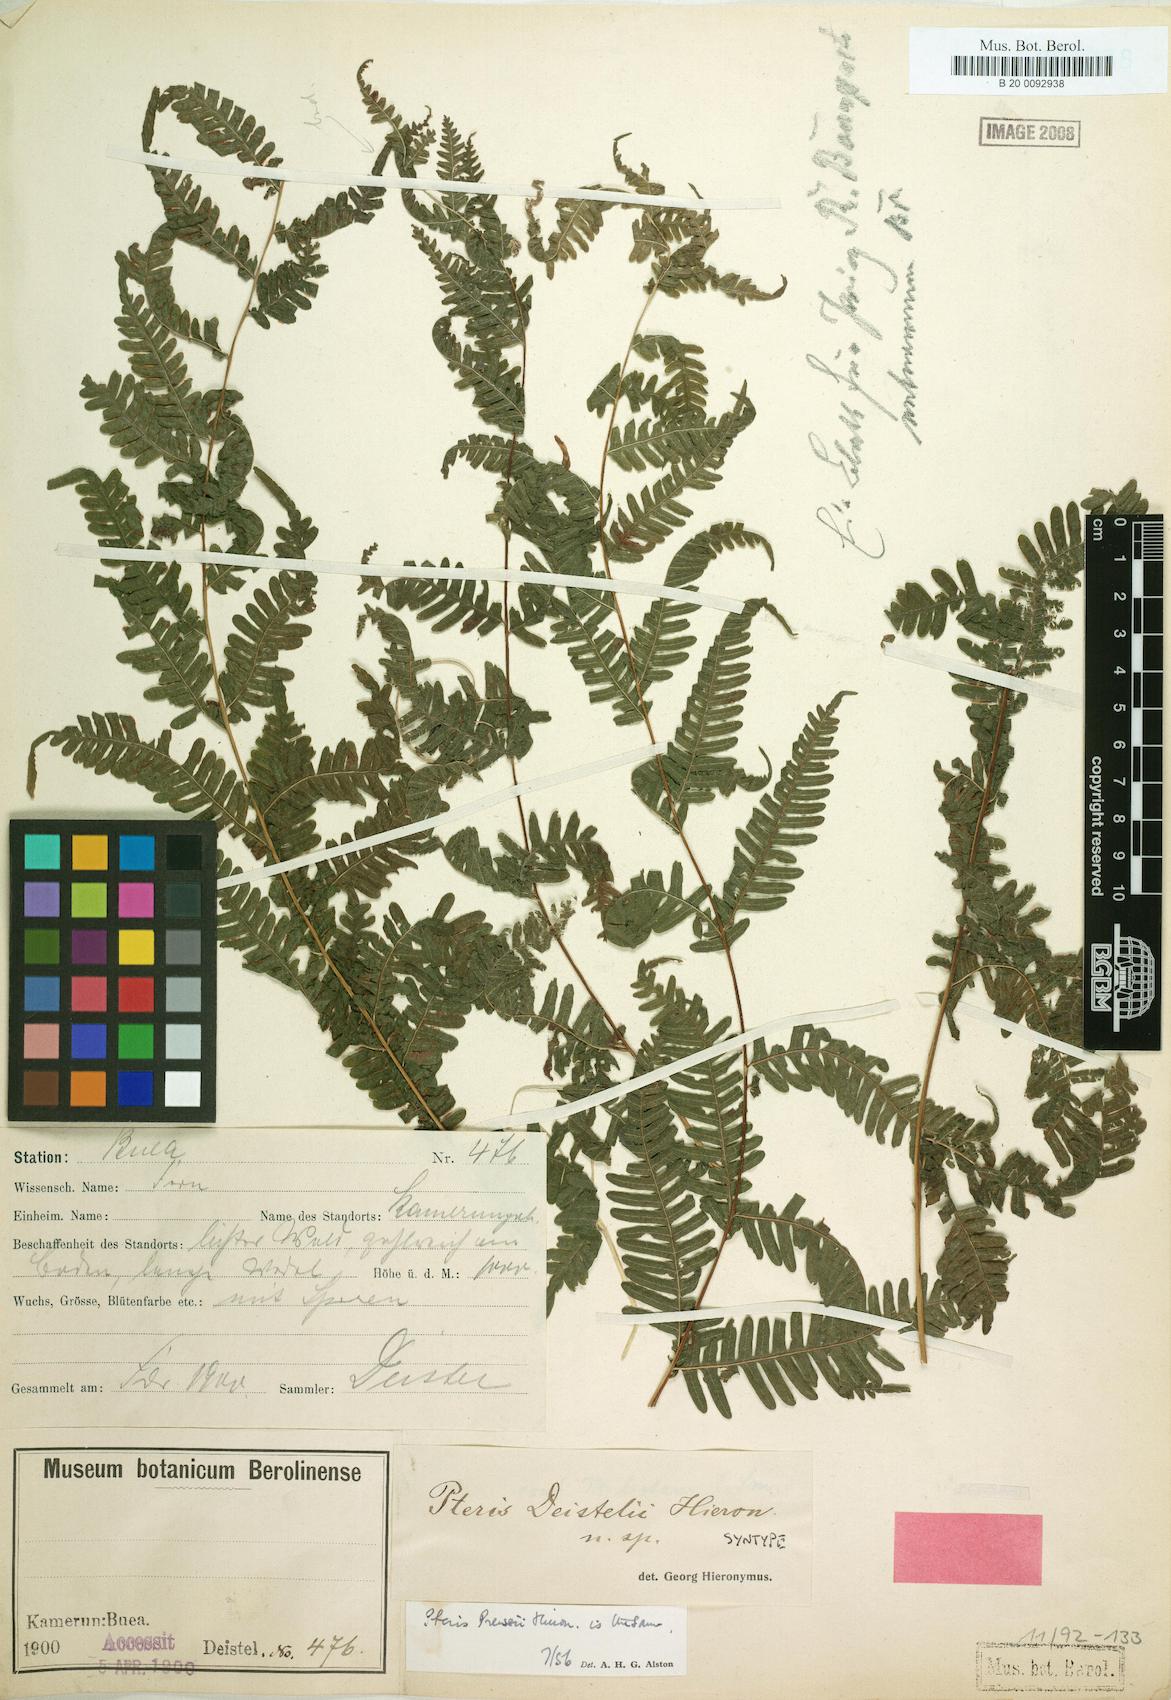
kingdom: Plantae
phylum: Tracheophyta
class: Polypodiopsida
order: Polypodiales
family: Pteridaceae
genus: Pteris
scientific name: Pteris preussii
